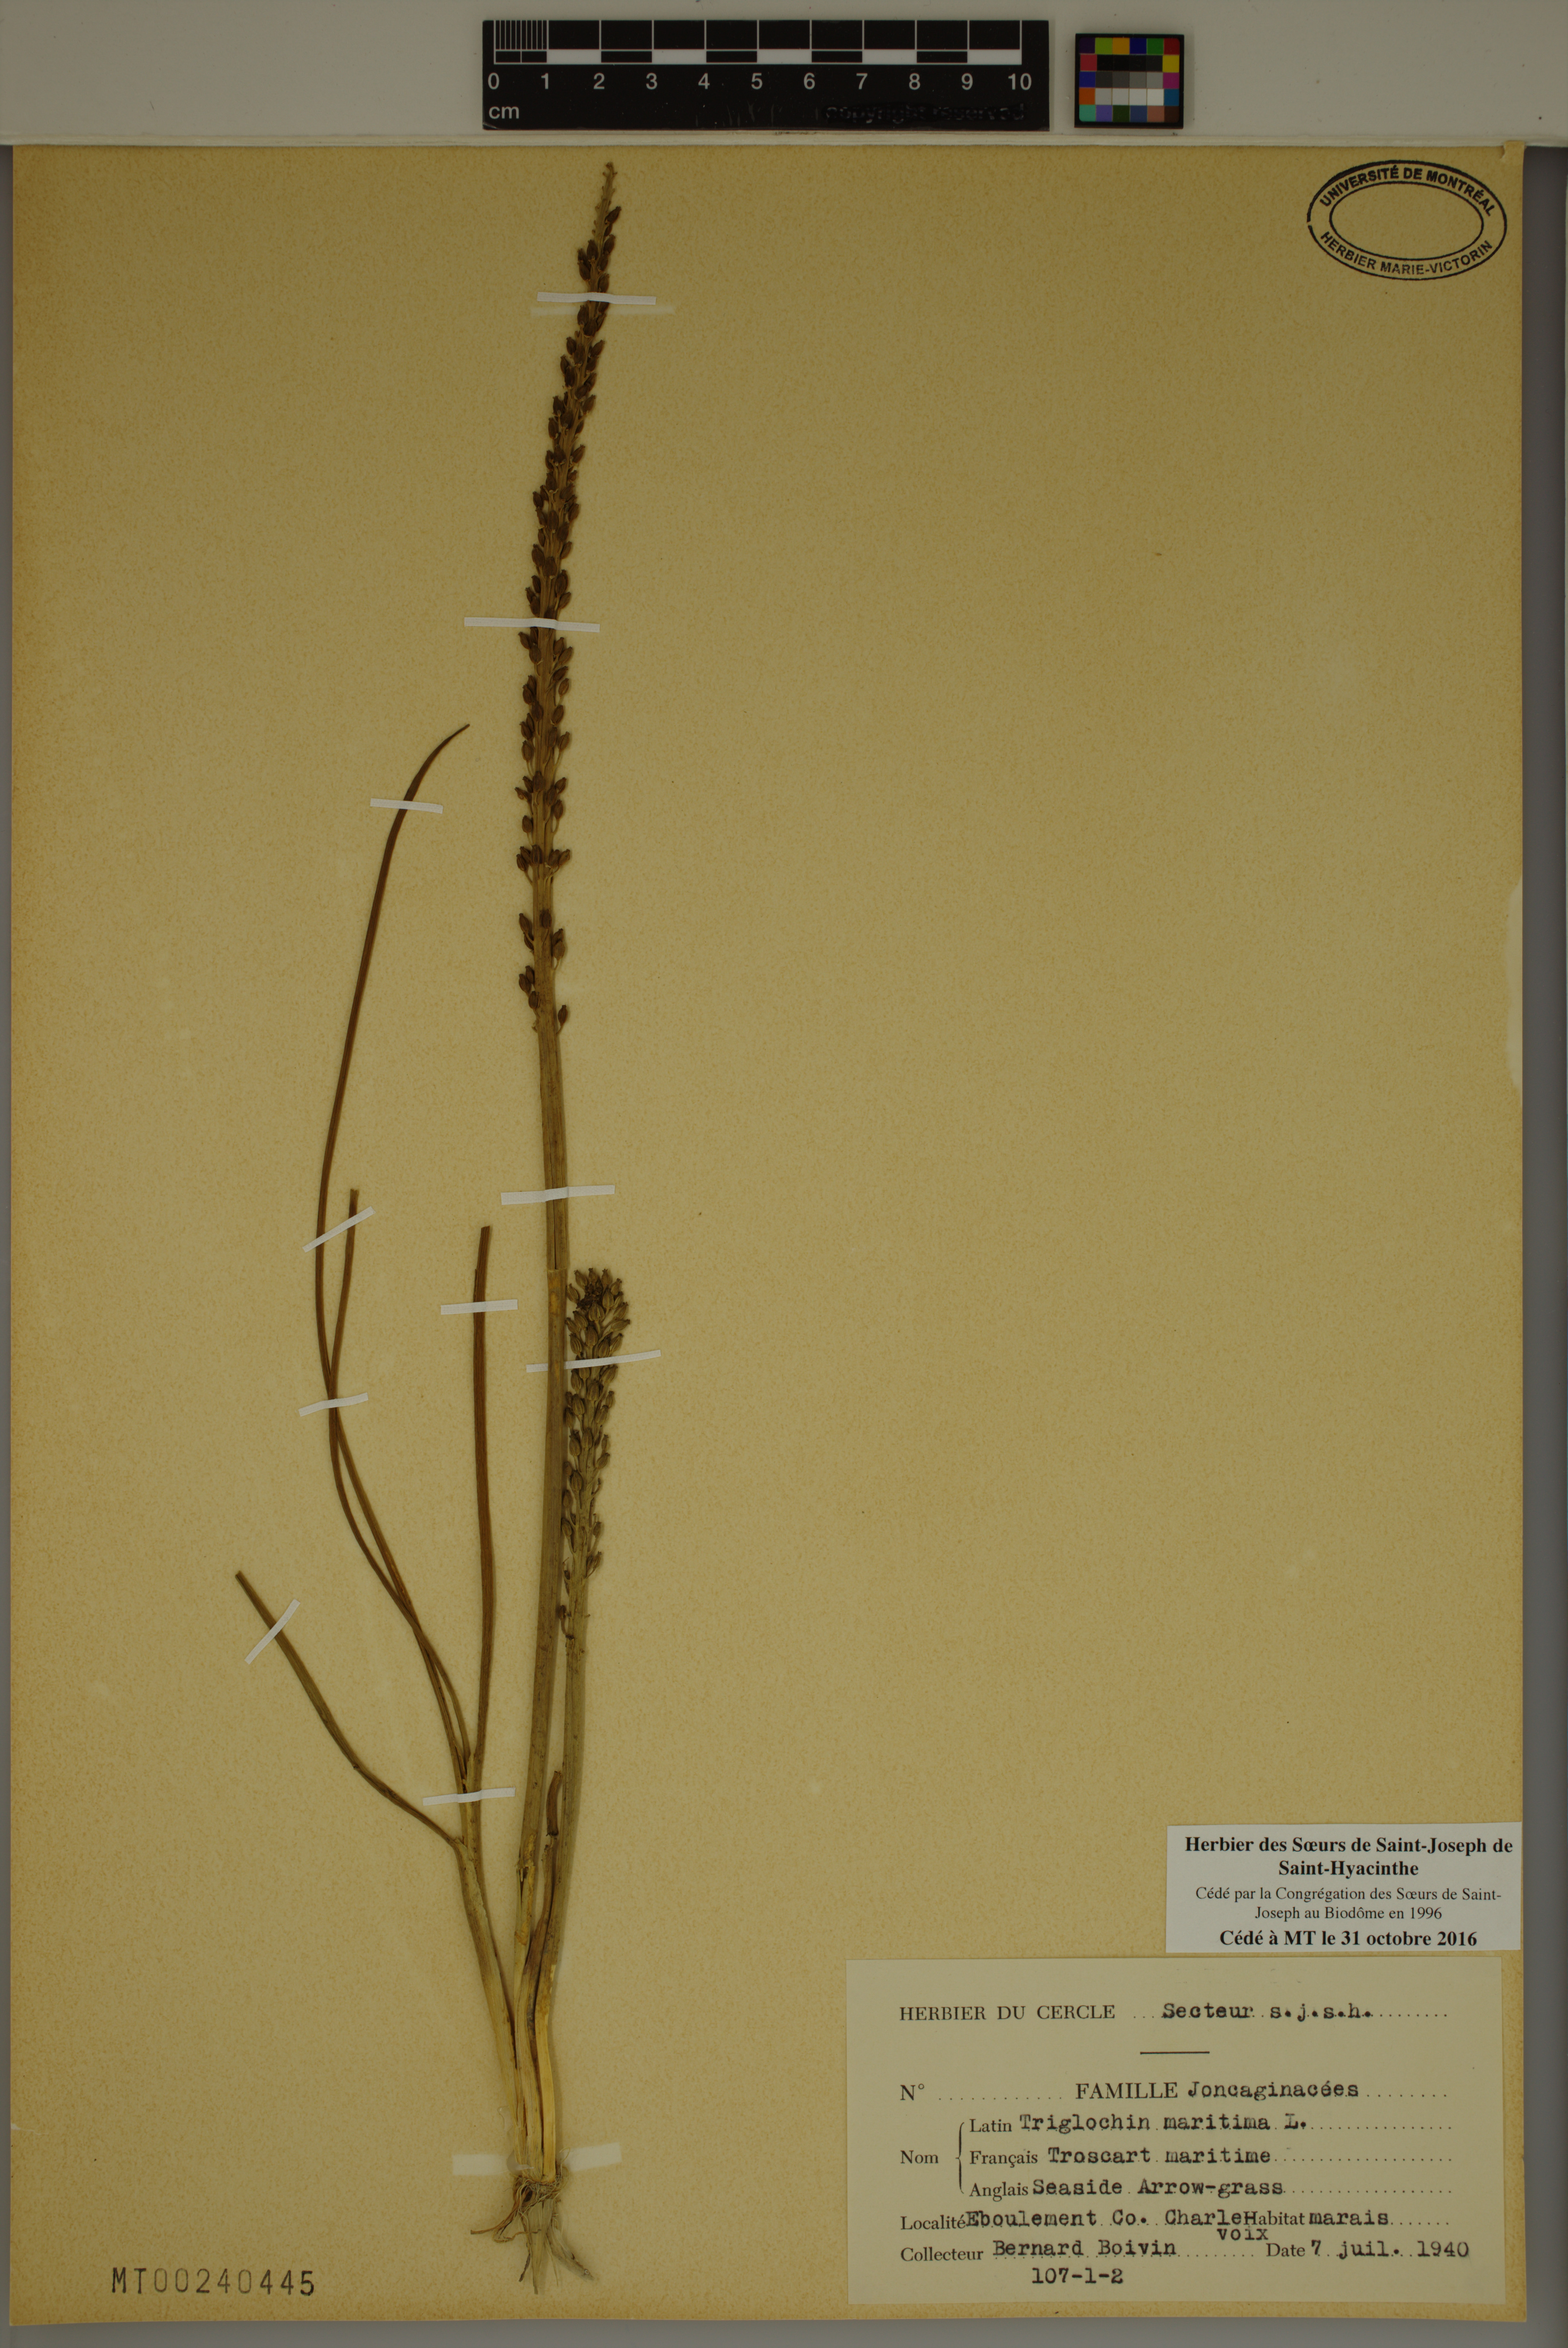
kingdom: Plantae
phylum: Tracheophyta
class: Liliopsida
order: Alismatales
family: Juncaginaceae
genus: Triglochin
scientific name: Triglochin maritima
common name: Sea arrowgrass
